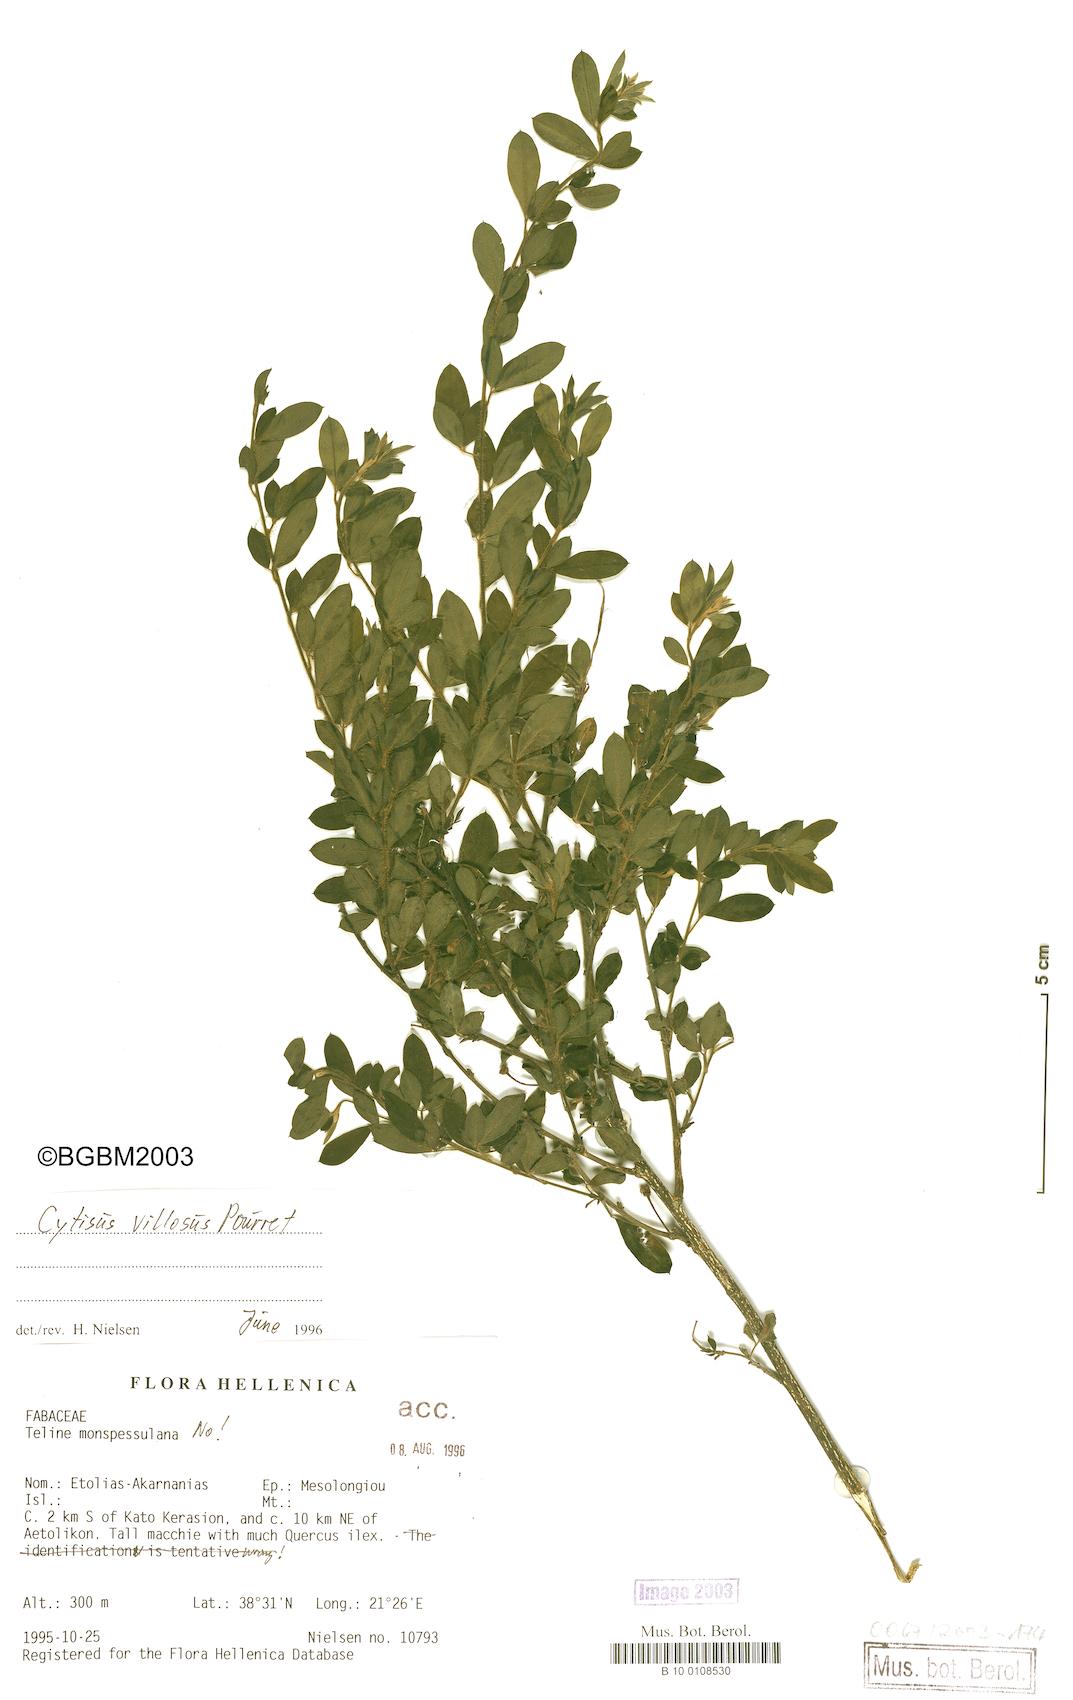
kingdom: Plantae
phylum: Tracheophyta
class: Magnoliopsida
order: Fabales
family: Fabaceae
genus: Cytisus
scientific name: Cytisus villosus
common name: Hairybroom
